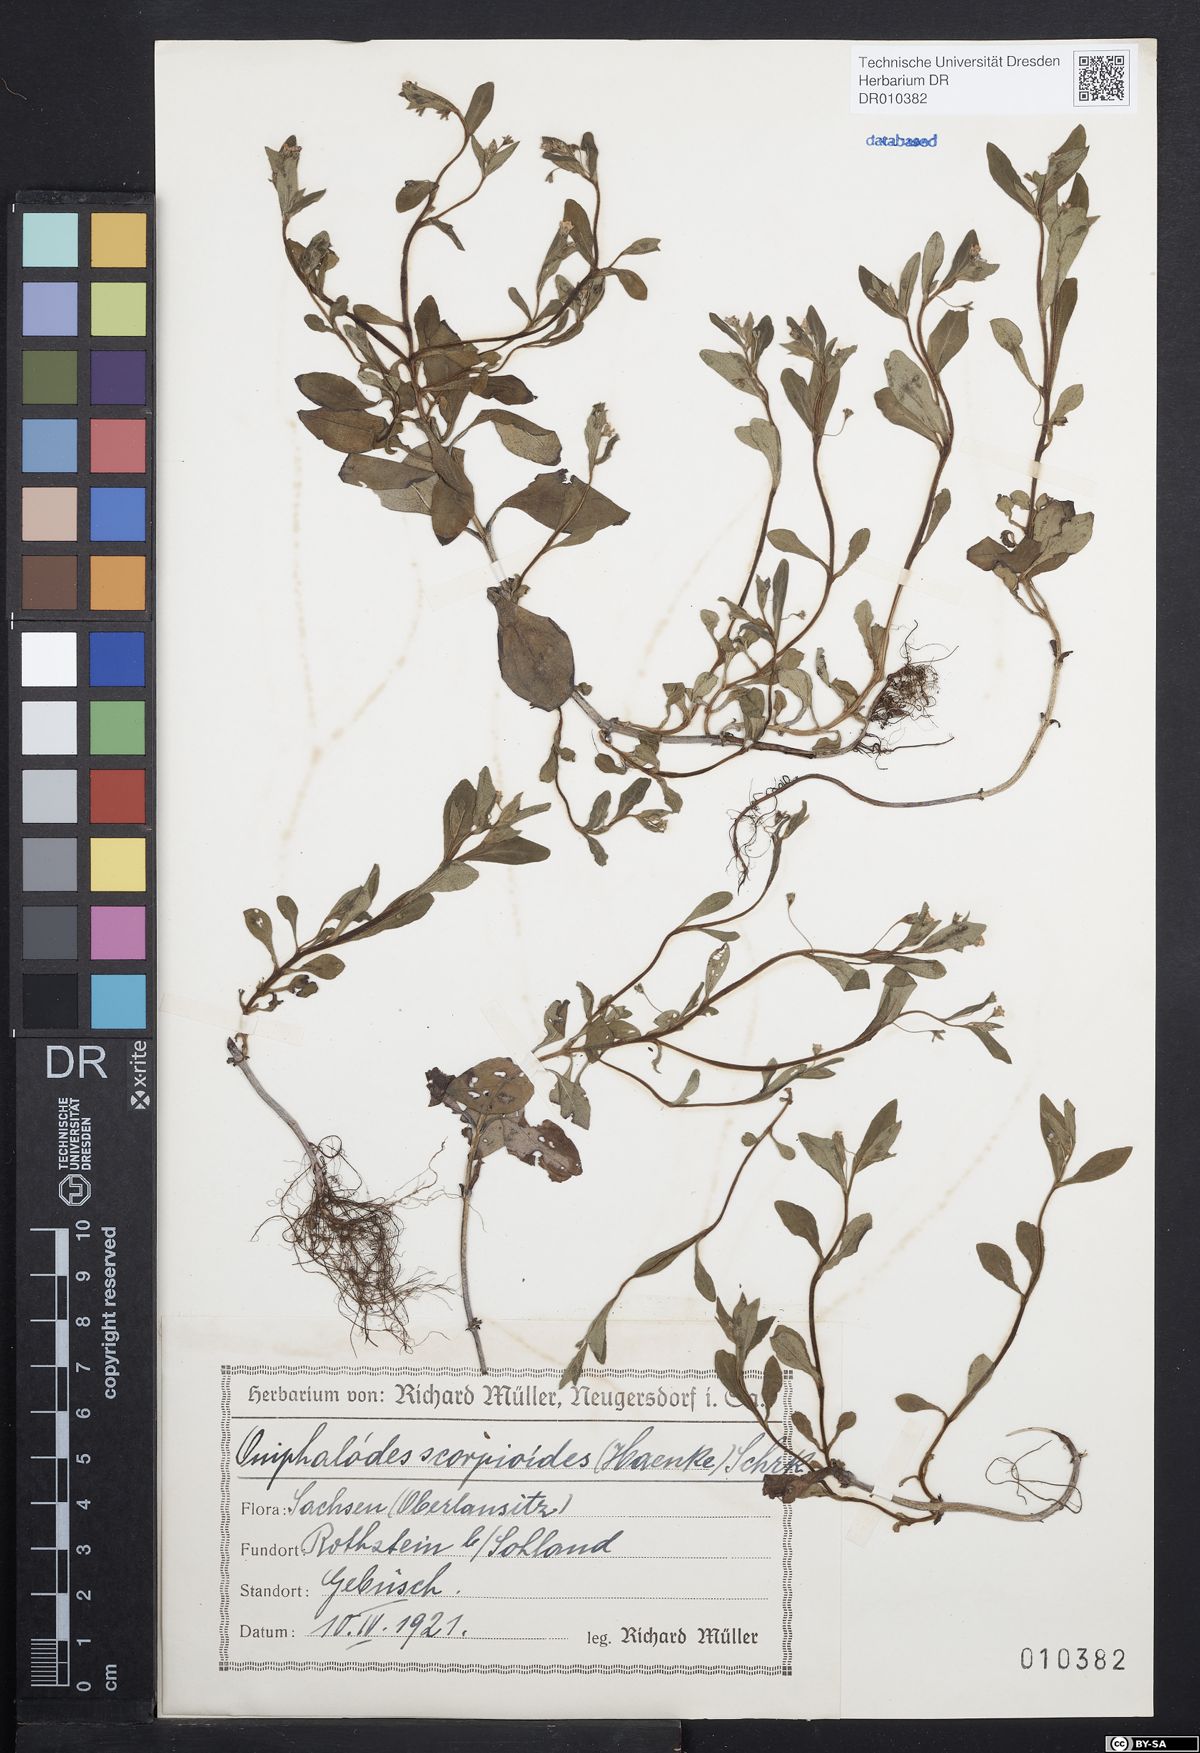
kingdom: Plantae
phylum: Tracheophyta
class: Magnoliopsida
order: Boraginales
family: Boraginaceae
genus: Memoremea
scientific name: Memoremea scorpioides
